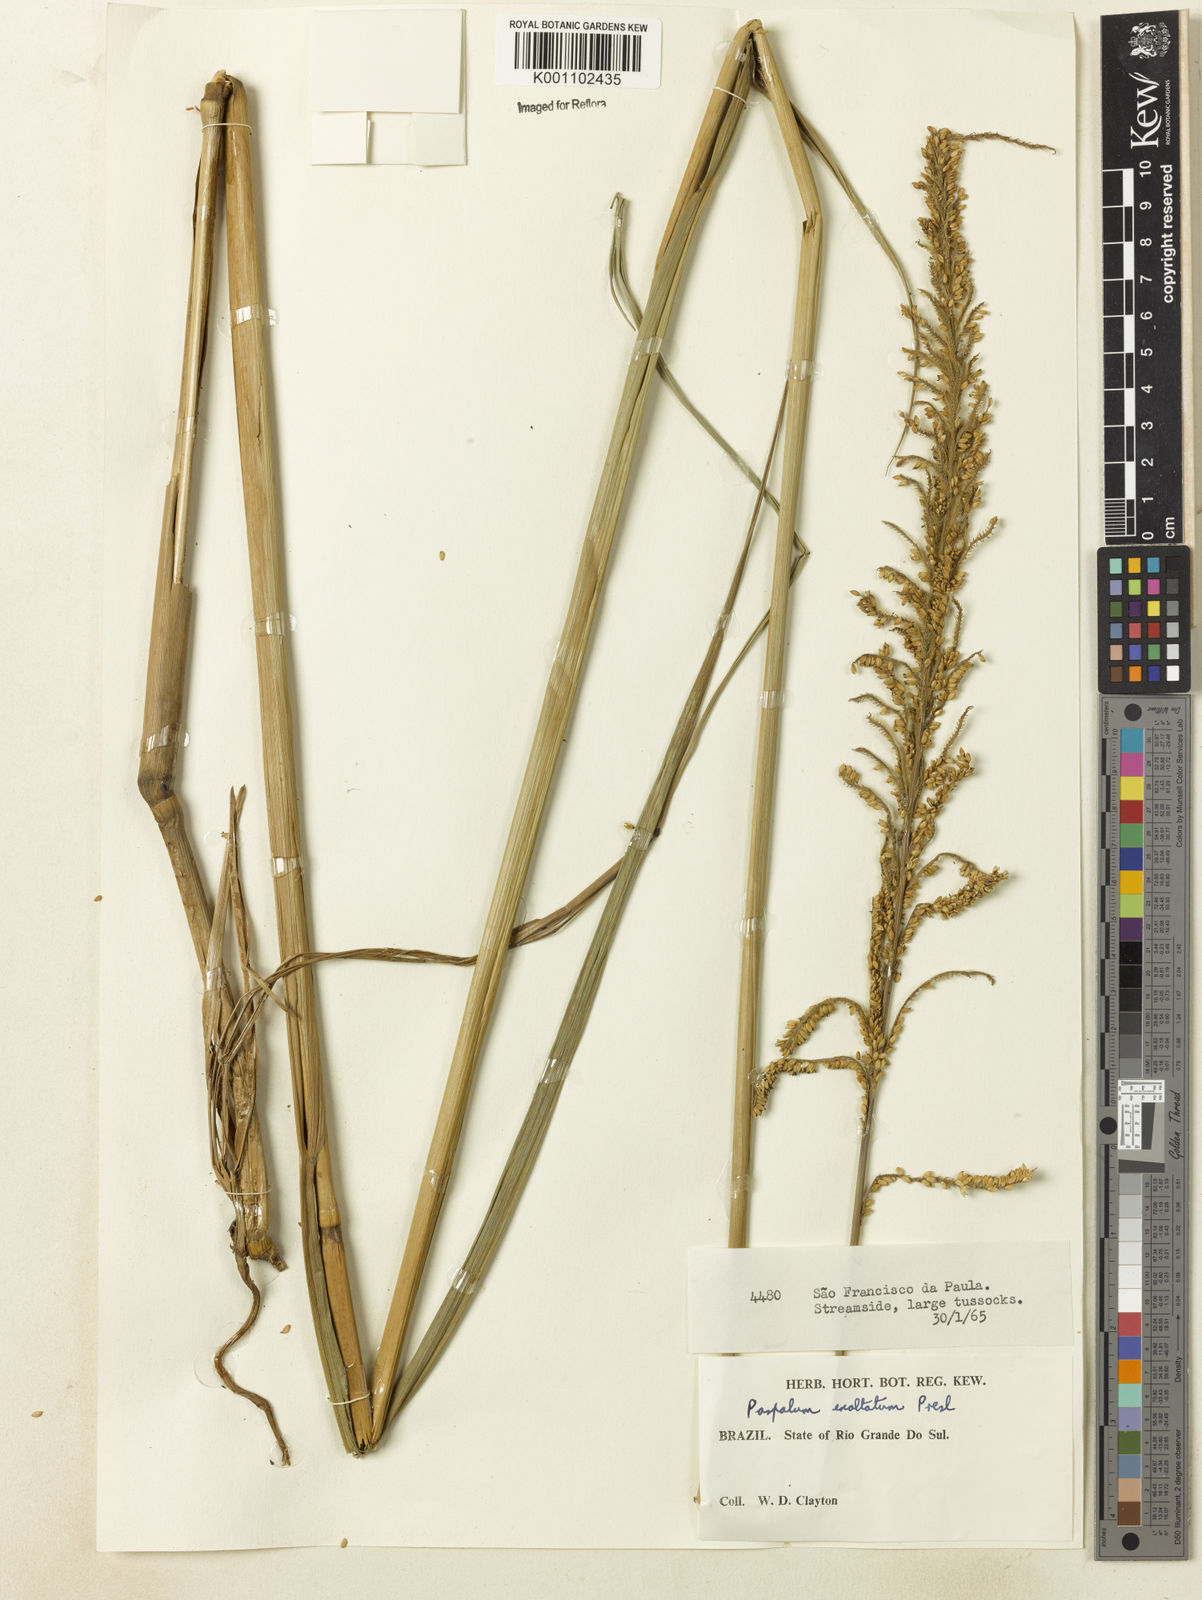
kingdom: Plantae
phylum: Tracheophyta
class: Liliopsida
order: Poales
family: Poaceae
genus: Paspalum
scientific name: Paspalum exaltatum
